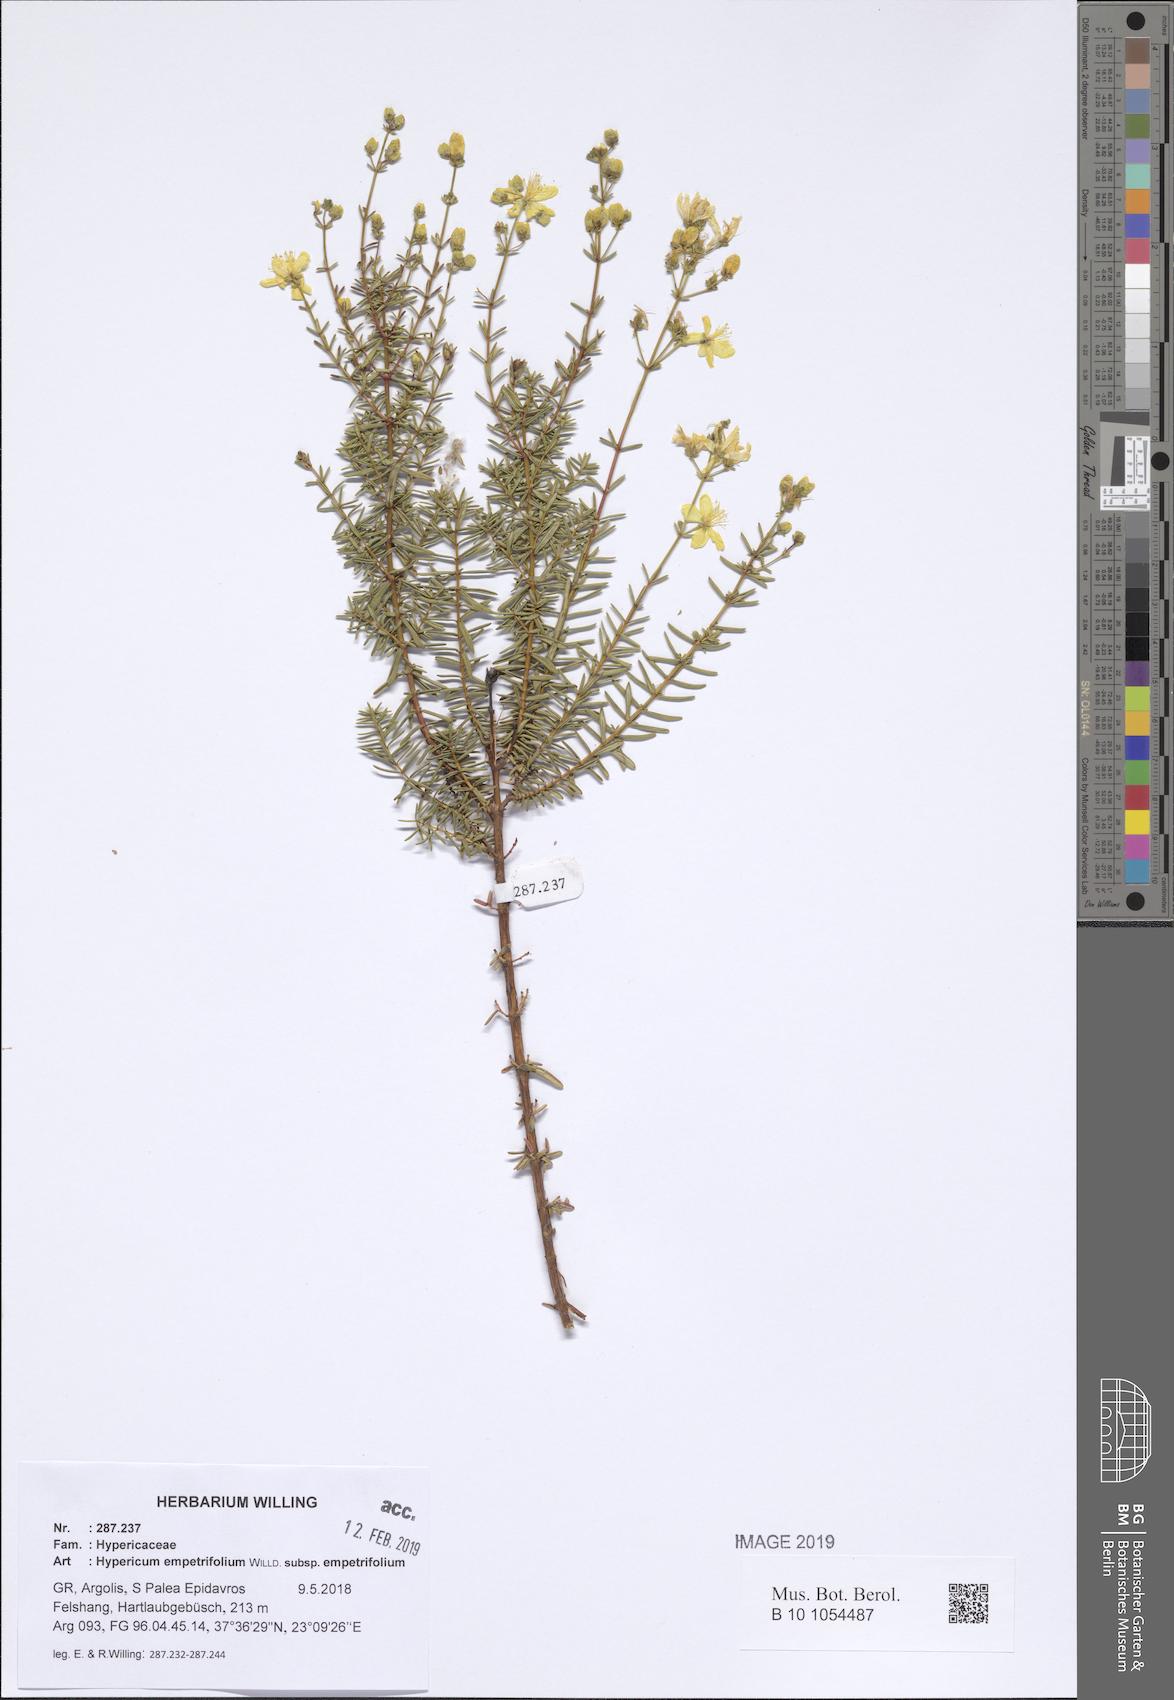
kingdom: Plantae
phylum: Tracheophyta
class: Magnoliopsida
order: Malpighiales
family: Hypericaceae
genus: Hypericum
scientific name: Hypericum empetrifolium
